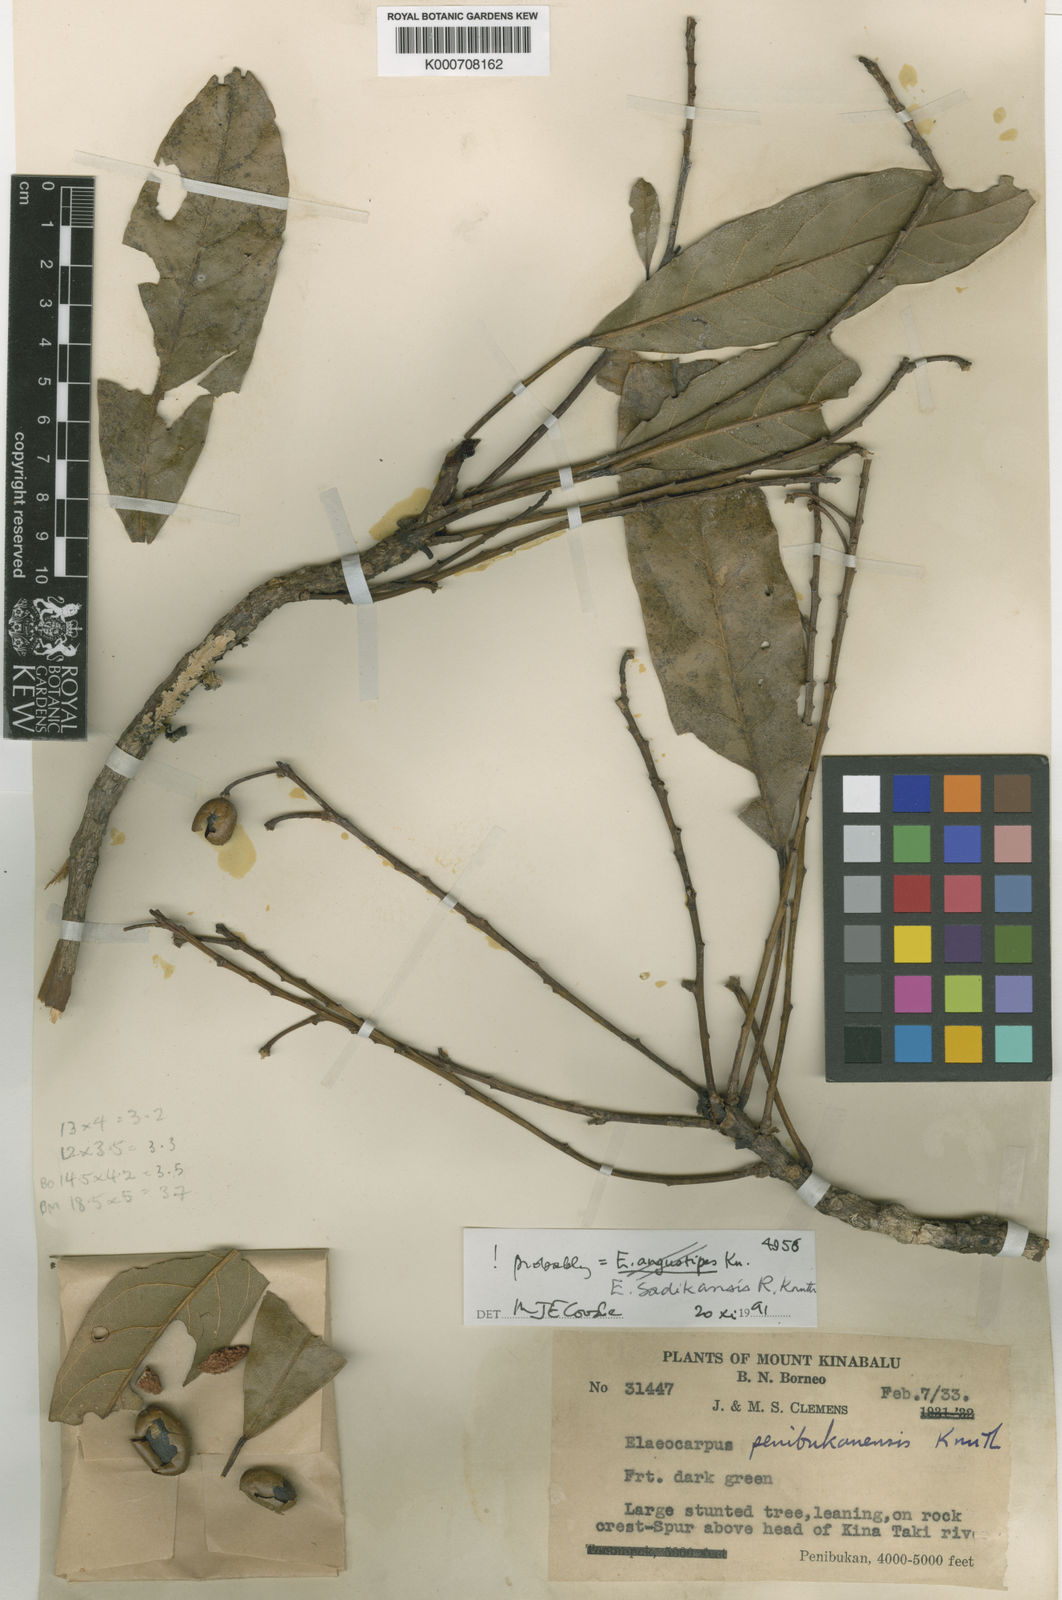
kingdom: Plantae
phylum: Tracheophyta
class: Magnoliopsida
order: Oxalidales
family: Elaeocarpaceae
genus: Elaeocarpus
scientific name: Elaeocarpus sadikanensis
